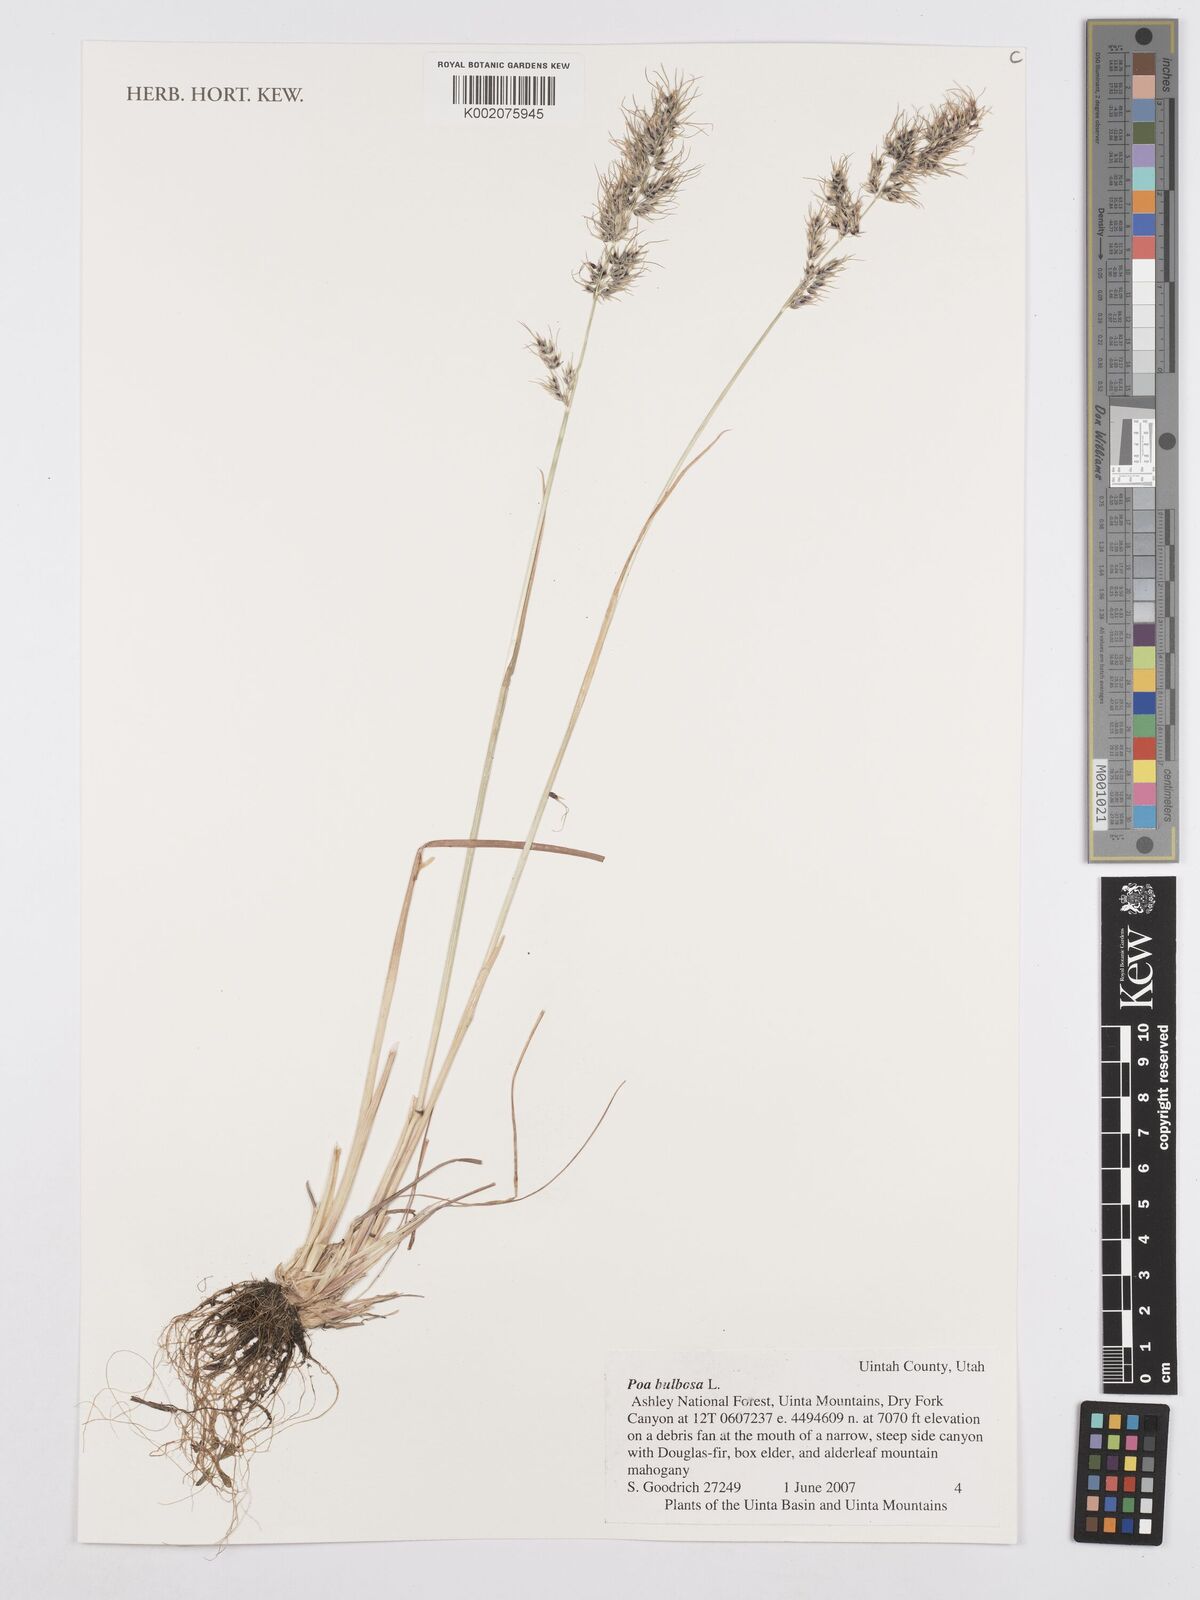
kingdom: Plantae
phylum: Tracheophyta
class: Liliopsida
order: Poales
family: Poaceae
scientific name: Poaceae
